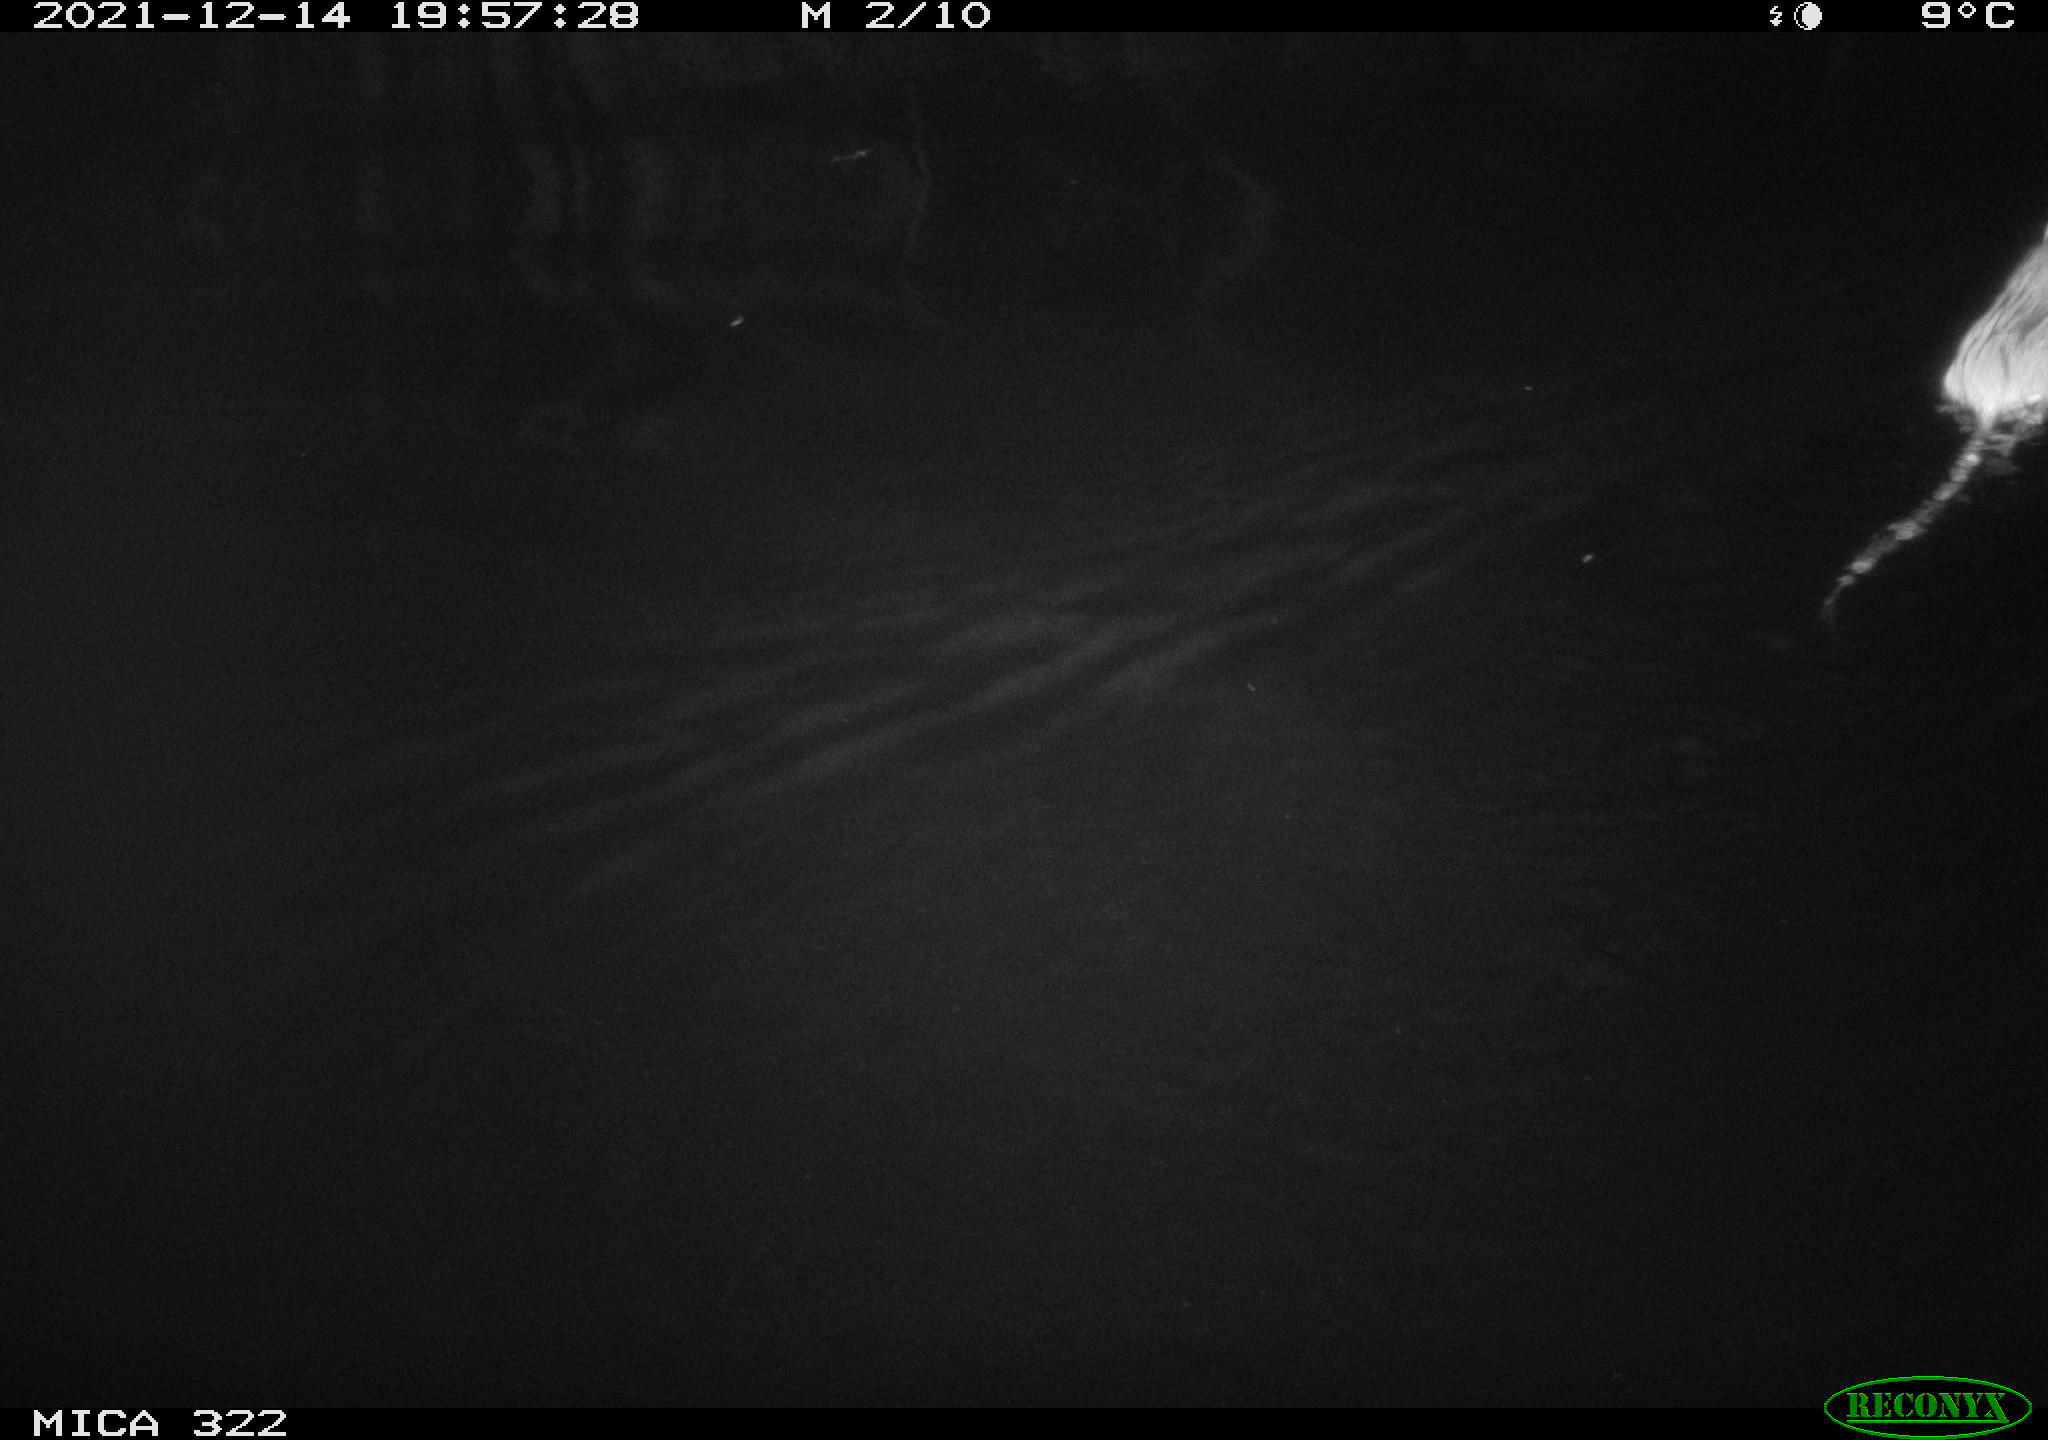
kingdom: Animalia
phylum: Chordata
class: Mammalia
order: Rodentia
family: Muridae
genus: Rattus
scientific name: Rattus norvegicus
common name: Brown rat
